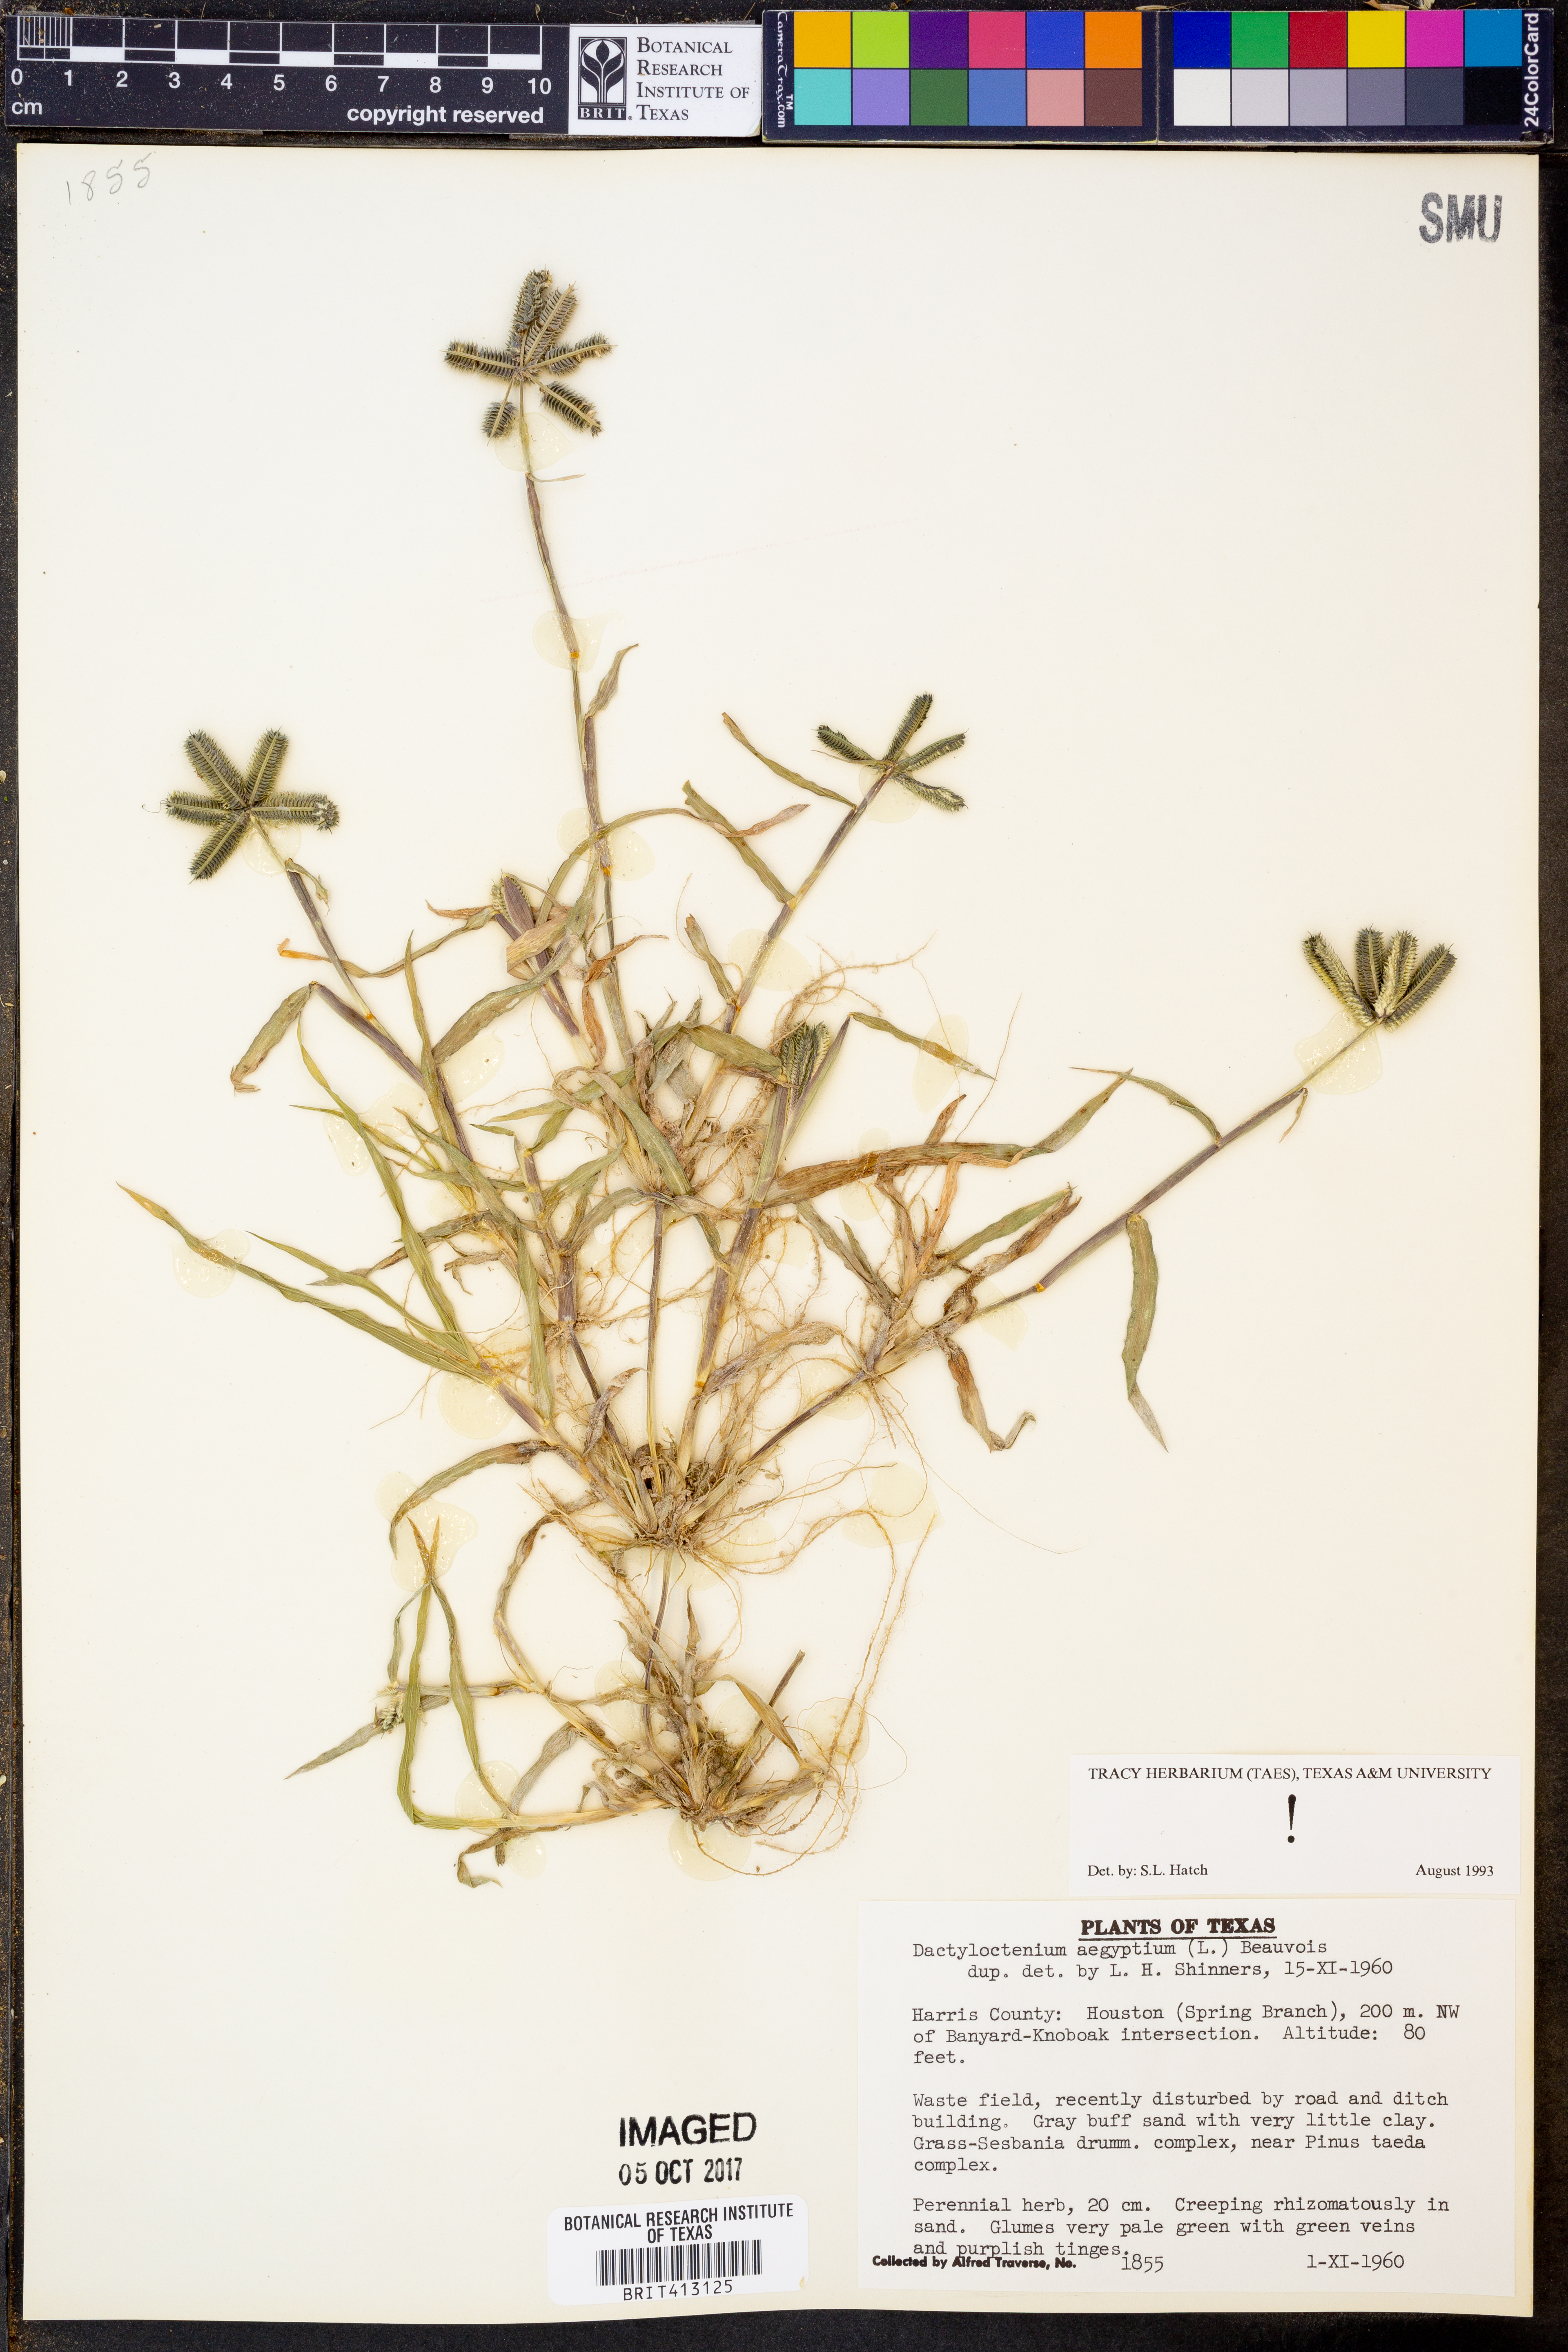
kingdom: Plantae
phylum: Tracheophyta
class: Liliopsida
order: Poales
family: Poaceae
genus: Dactyloctenium
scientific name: Dactyloctenium aegyptium
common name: Egyptian grass
